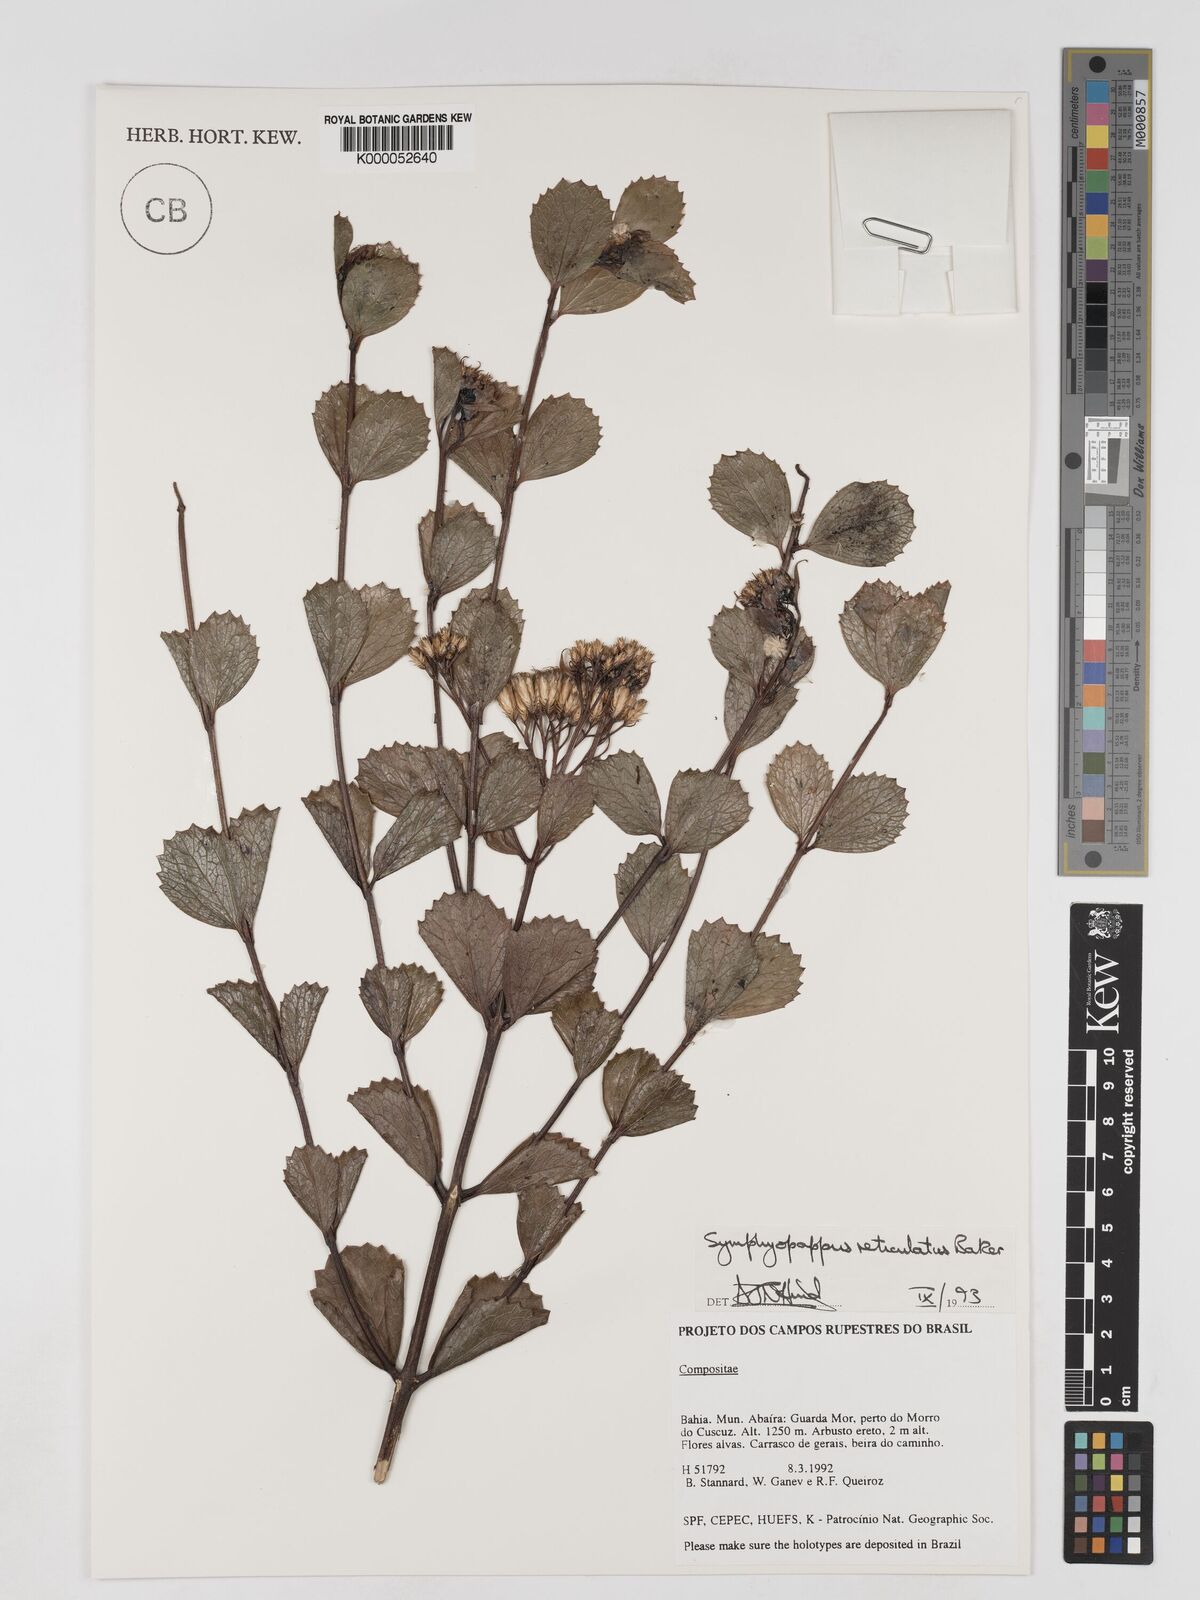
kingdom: Plantae
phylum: Tracheophyta
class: Magnoliopsida
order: Asterales
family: Asteraceae
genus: Symphyopappus
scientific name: Symphyopappus reticulatus
